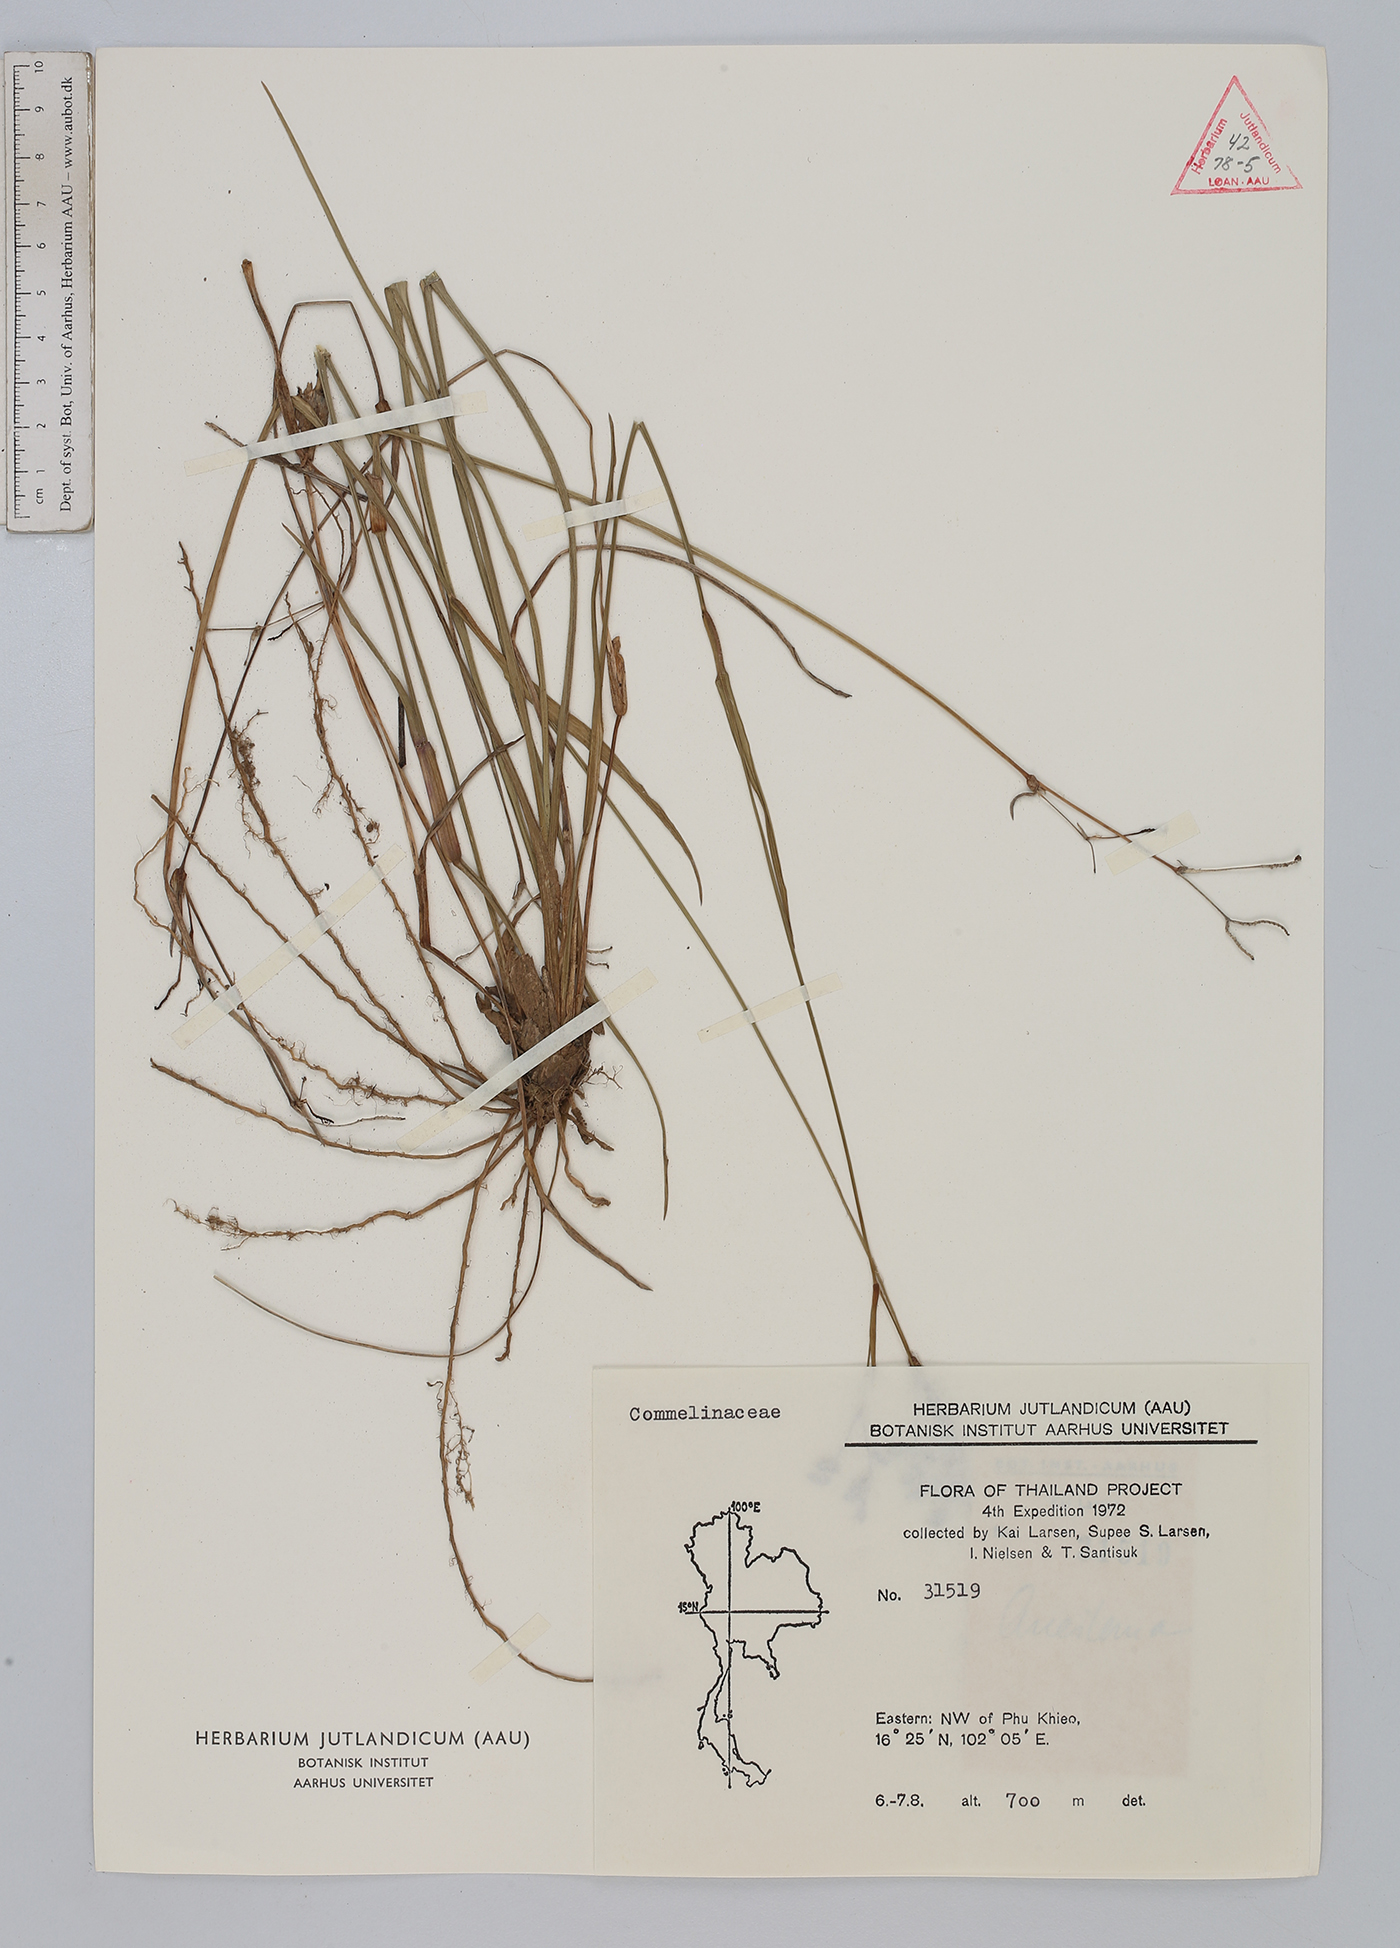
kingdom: Plantae
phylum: Tracheophyta
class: Liliopsida
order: Commelinales
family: Commelinaceae
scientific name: Commelinaceae
